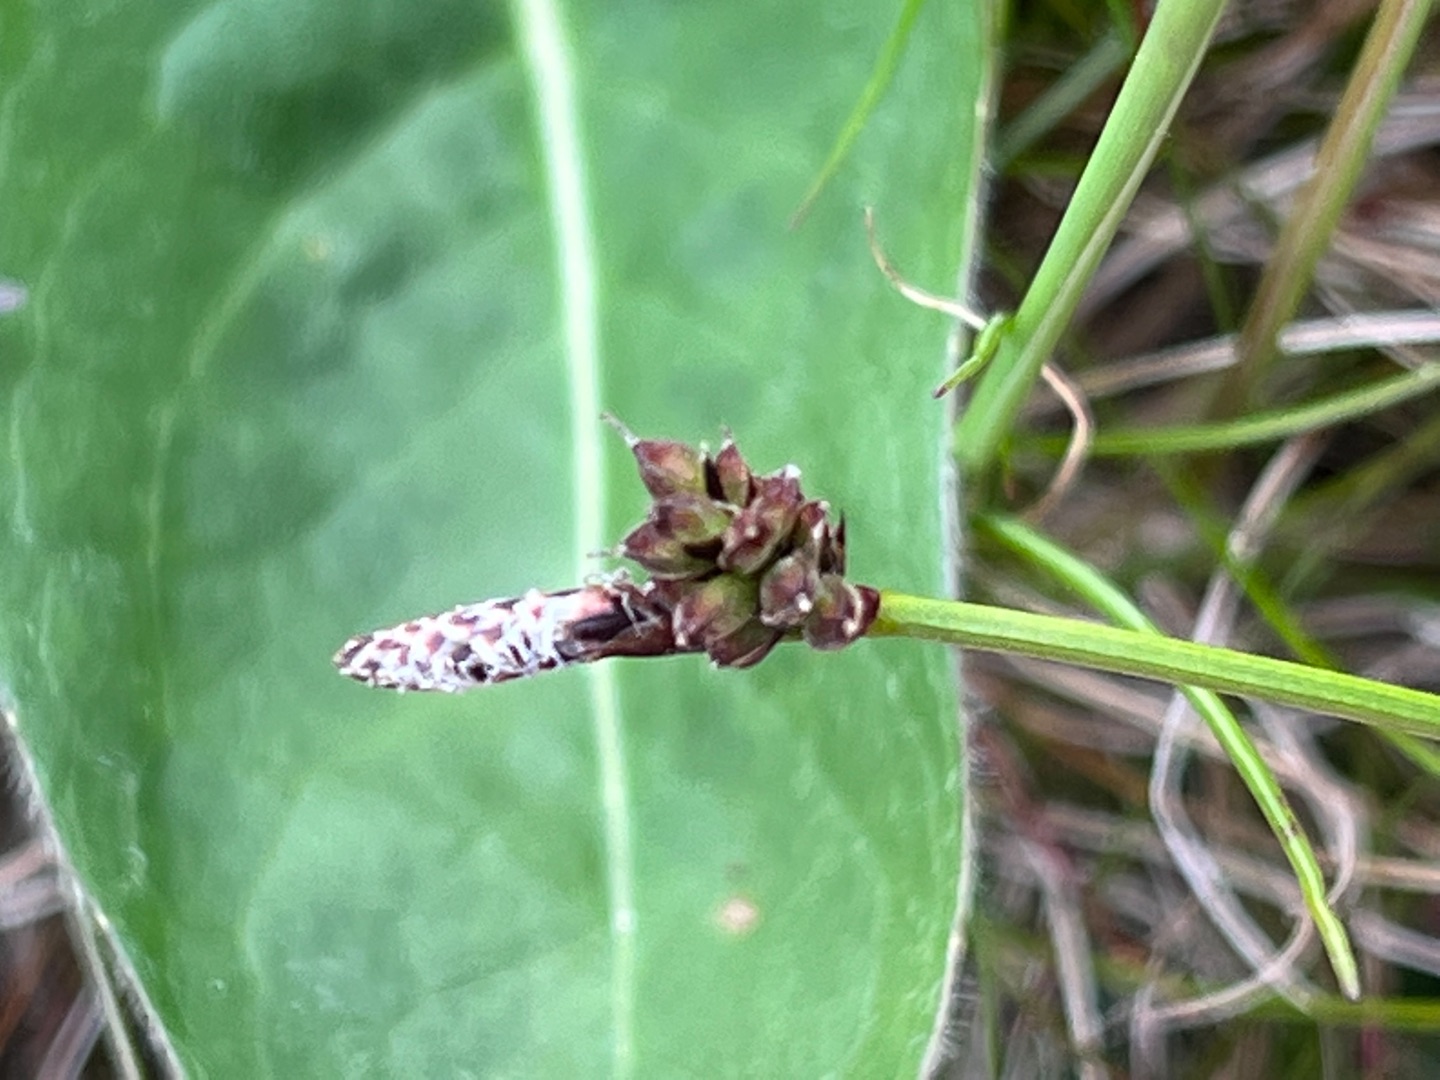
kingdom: Plantae
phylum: Tracheophyta
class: Liliopsida
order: Poales
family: Cyperaceae
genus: Carex
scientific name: Carex ericetorum
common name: Lyng-star
